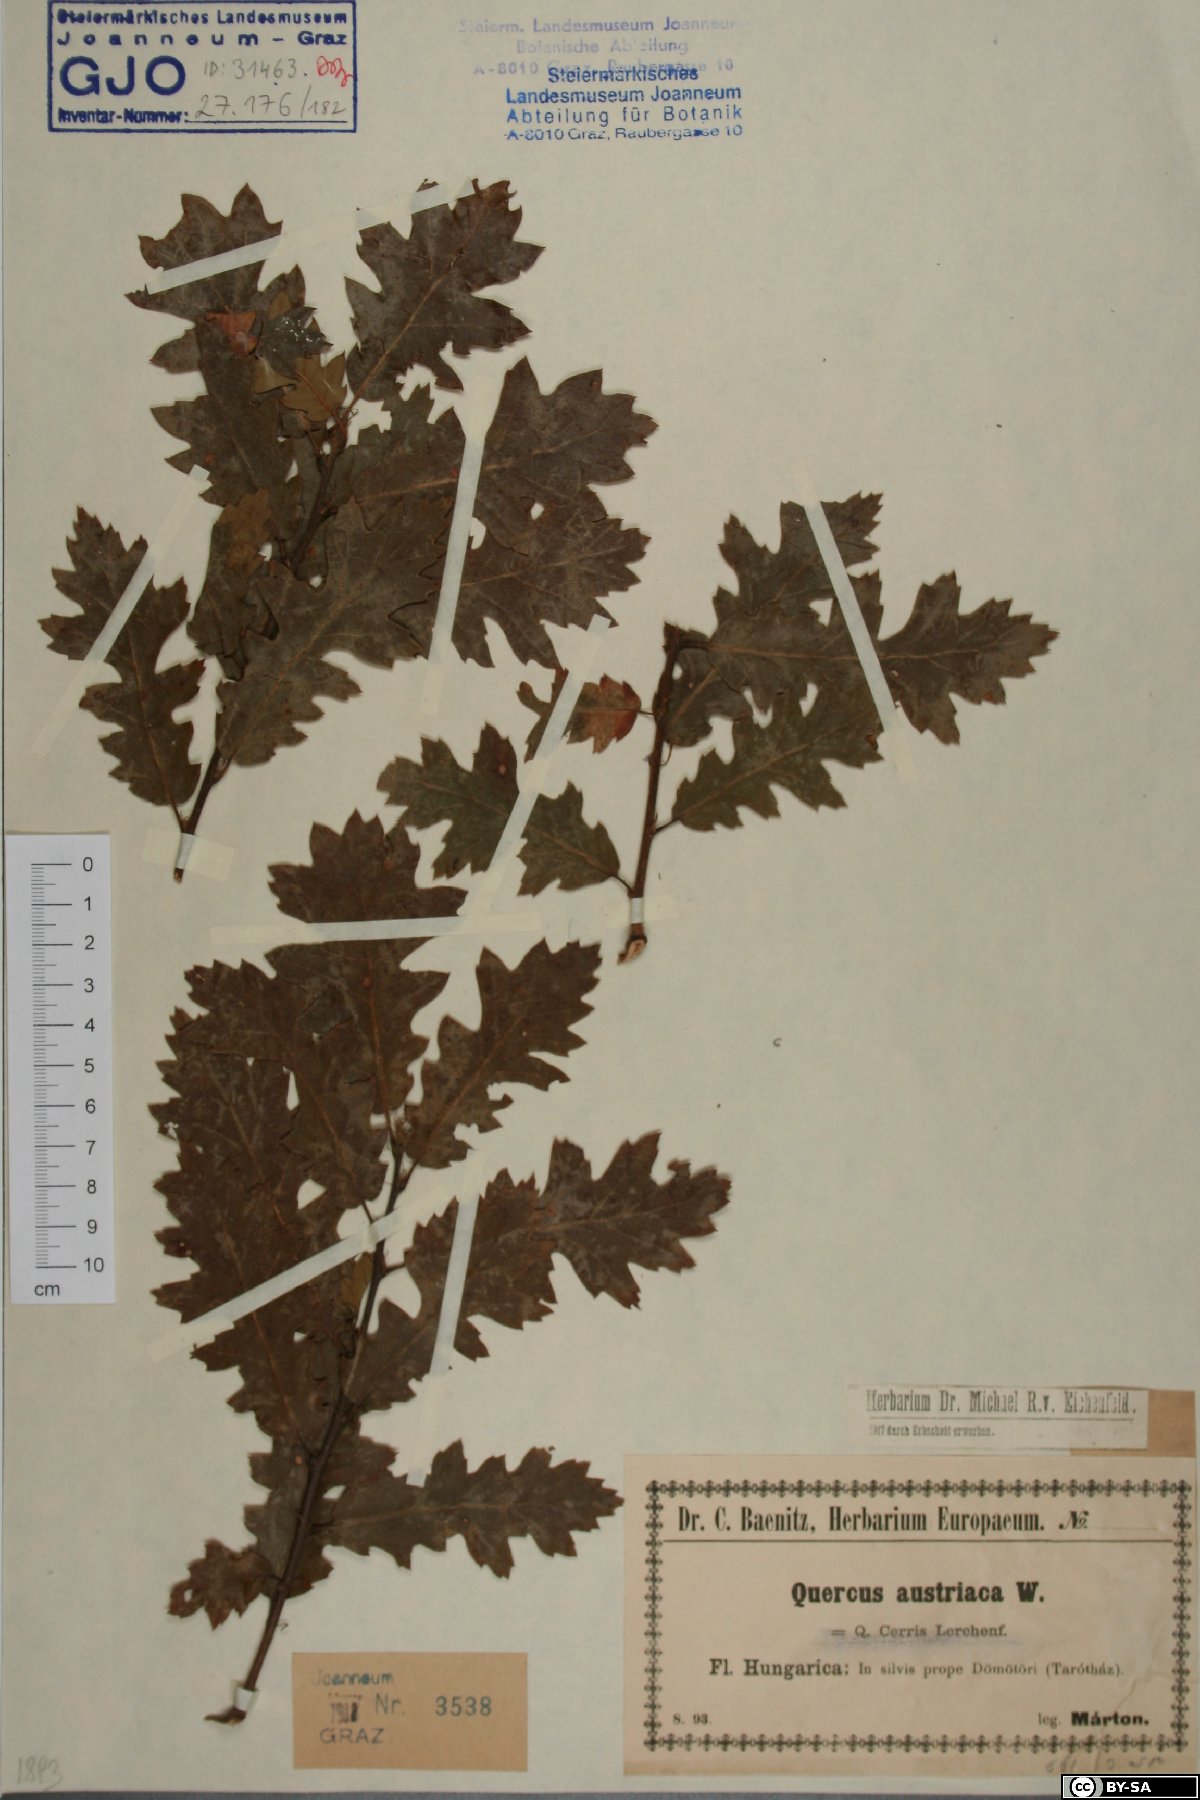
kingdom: Plantae
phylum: Tracheophyta
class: Magnoliopsida
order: Fagales
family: Fagaceae
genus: Quercus
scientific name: Quercus cerris
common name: Turkey oak
